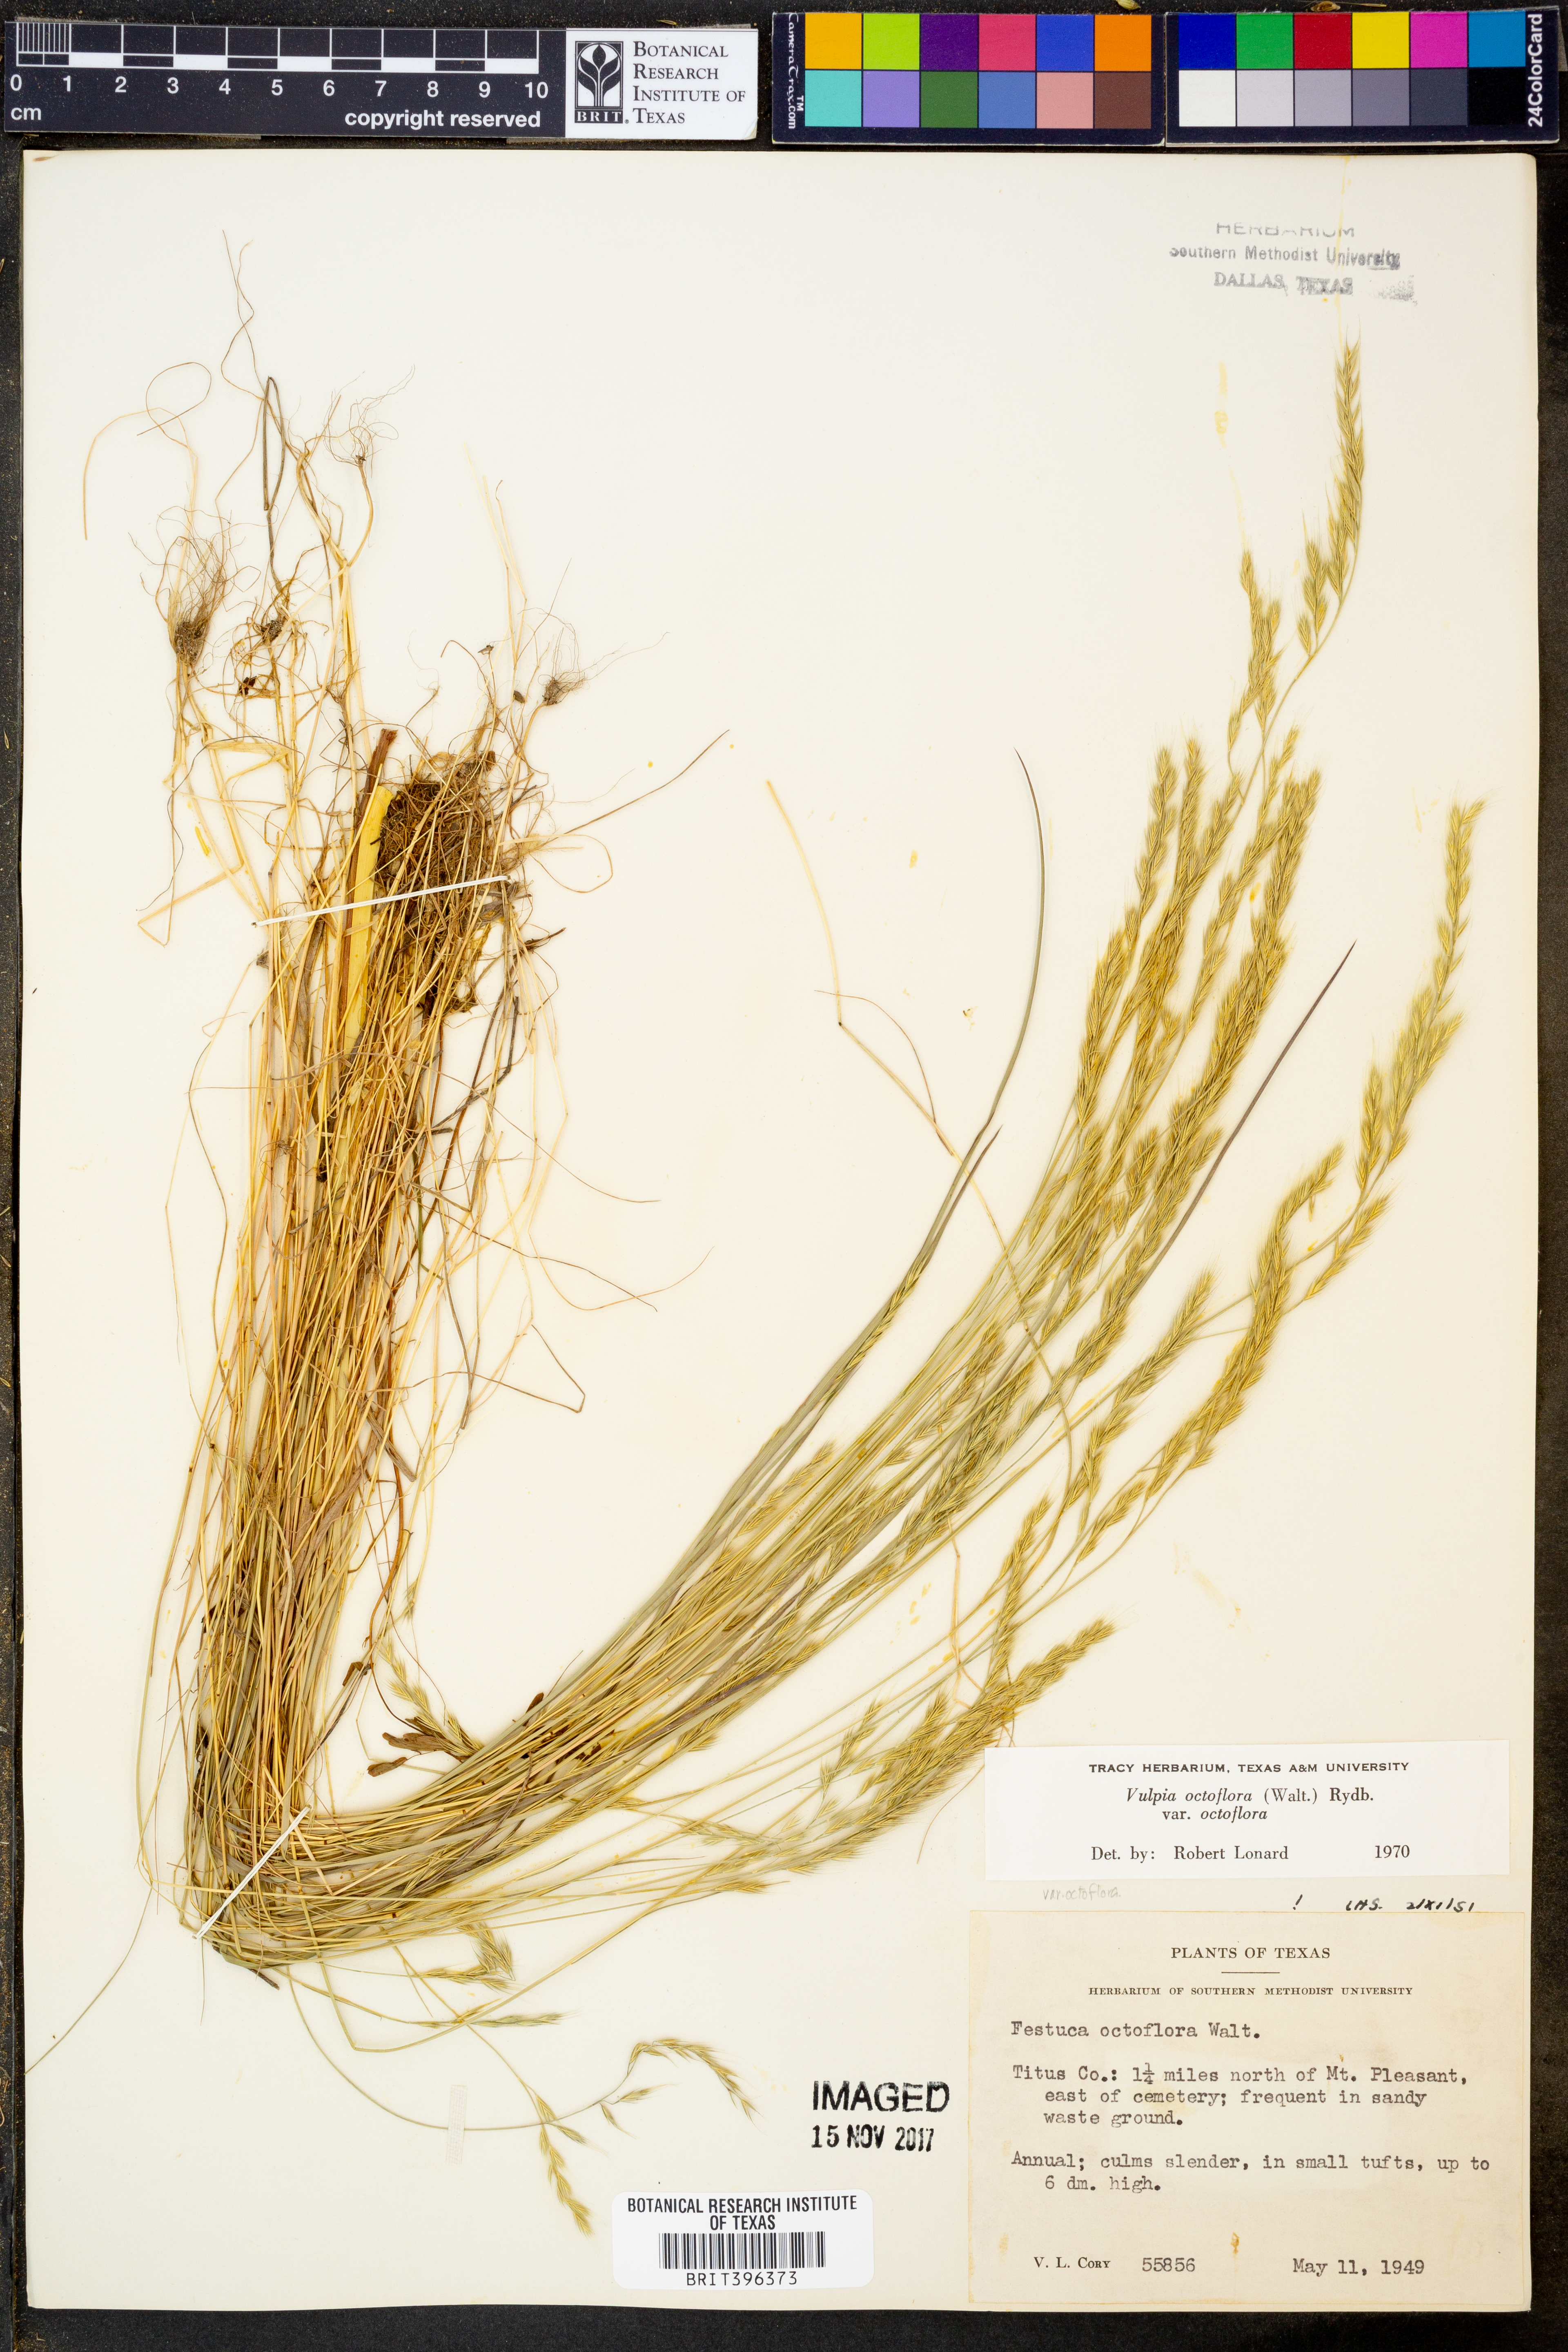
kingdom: Plantae
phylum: Tracheophyta
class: Liliopsida
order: Poales
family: Poaceae
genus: Festuca
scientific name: Festuca octoflora
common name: Sixweeks grass
